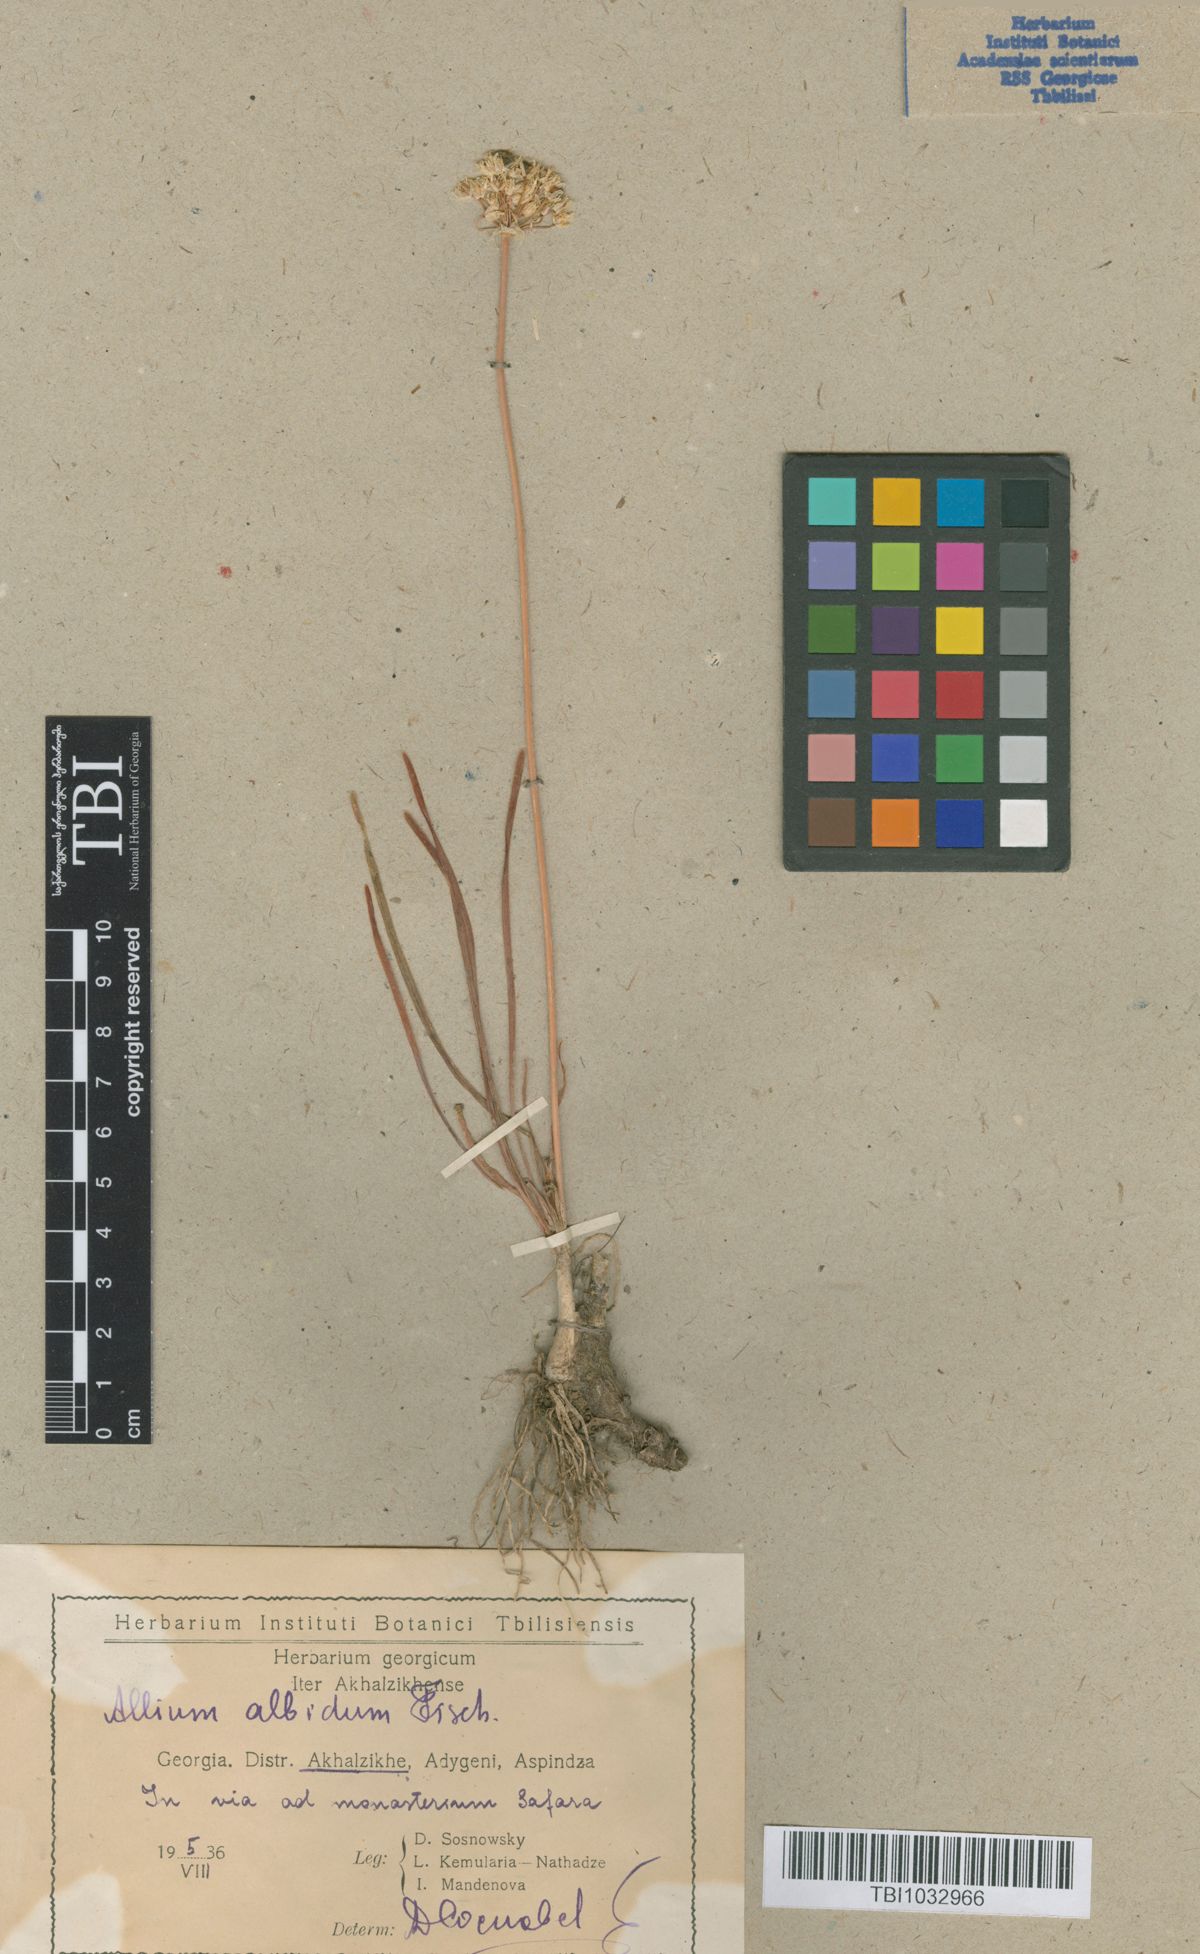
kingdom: Plantae
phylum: Tracheophyta
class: Liliopsida
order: Asparagales
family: Amaryllidaceae
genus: Allium
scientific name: Allium denudatum
